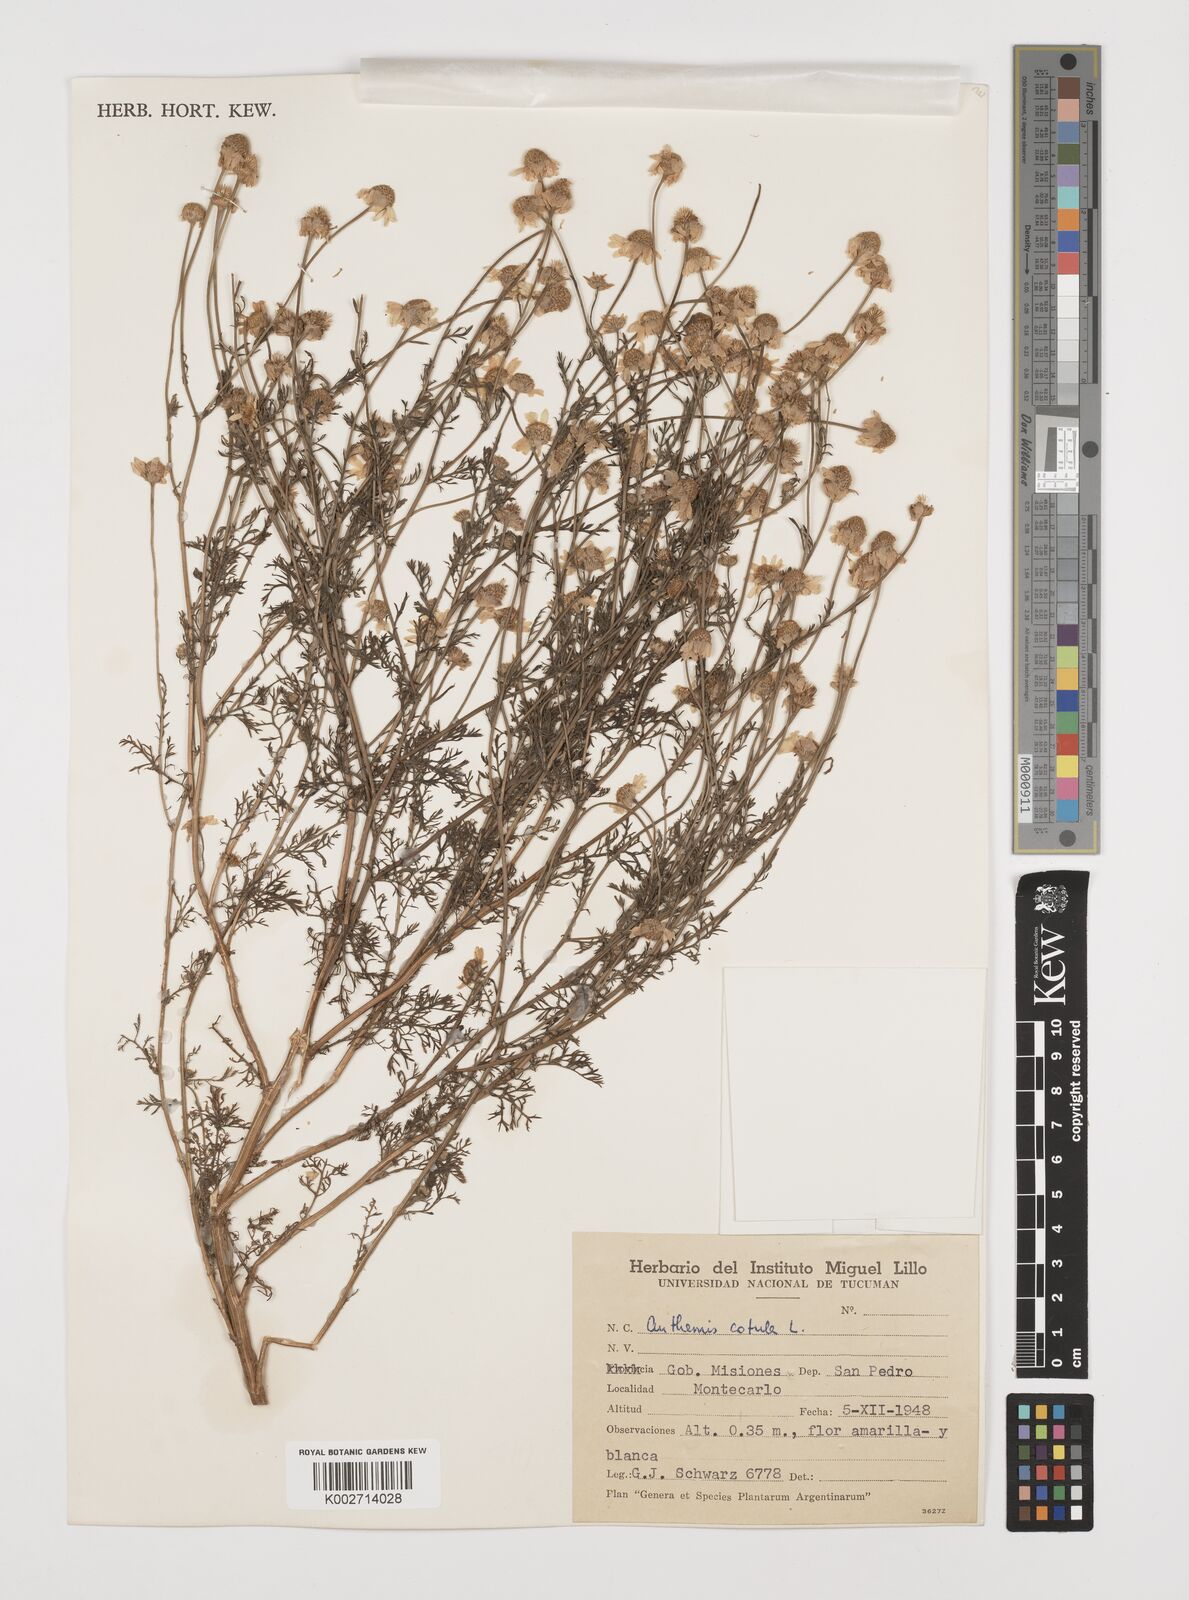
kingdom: Plantae
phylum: Tracheophyta
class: Magnoliopsida
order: Asterales
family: Asteraceae
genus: Anthemis
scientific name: Anthemis cotula
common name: Stinking chamomile
